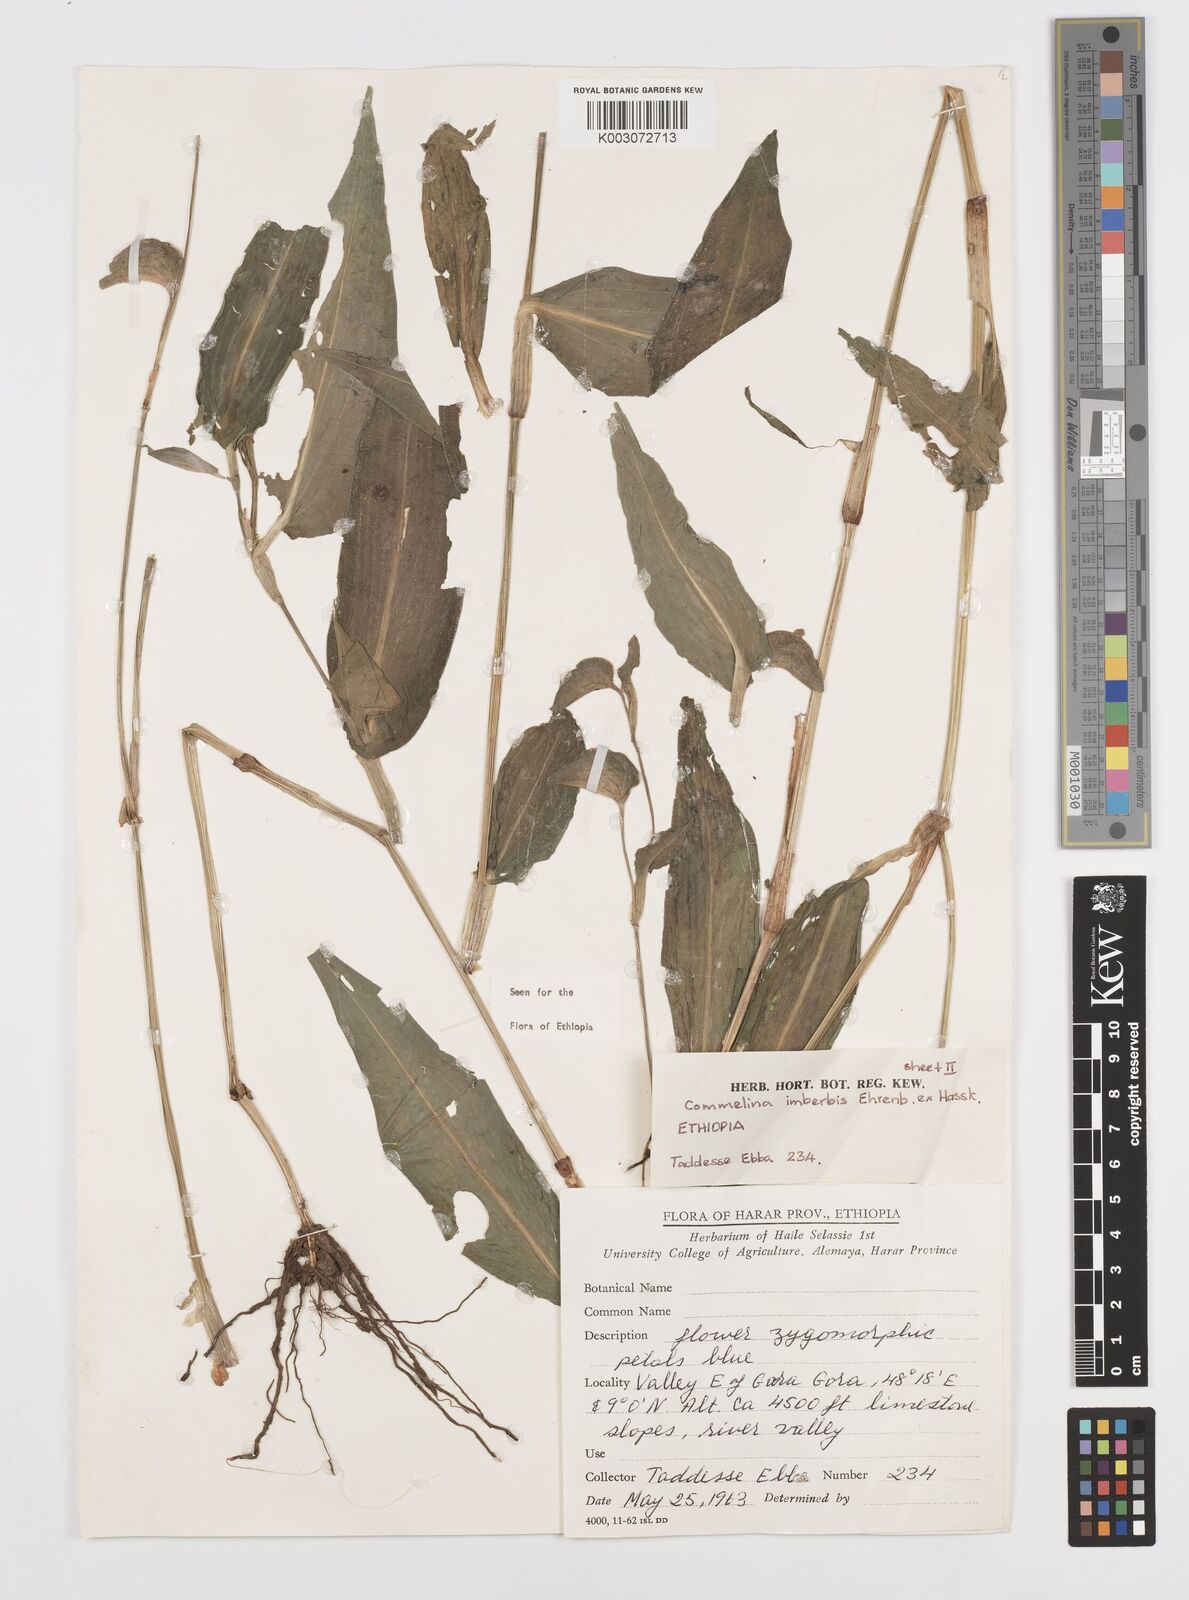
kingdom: Plantae
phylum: Tracheophyta
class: Liliopsida
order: Commelinales
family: Commelinaceae
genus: Commelina
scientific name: Commelina imberbis
